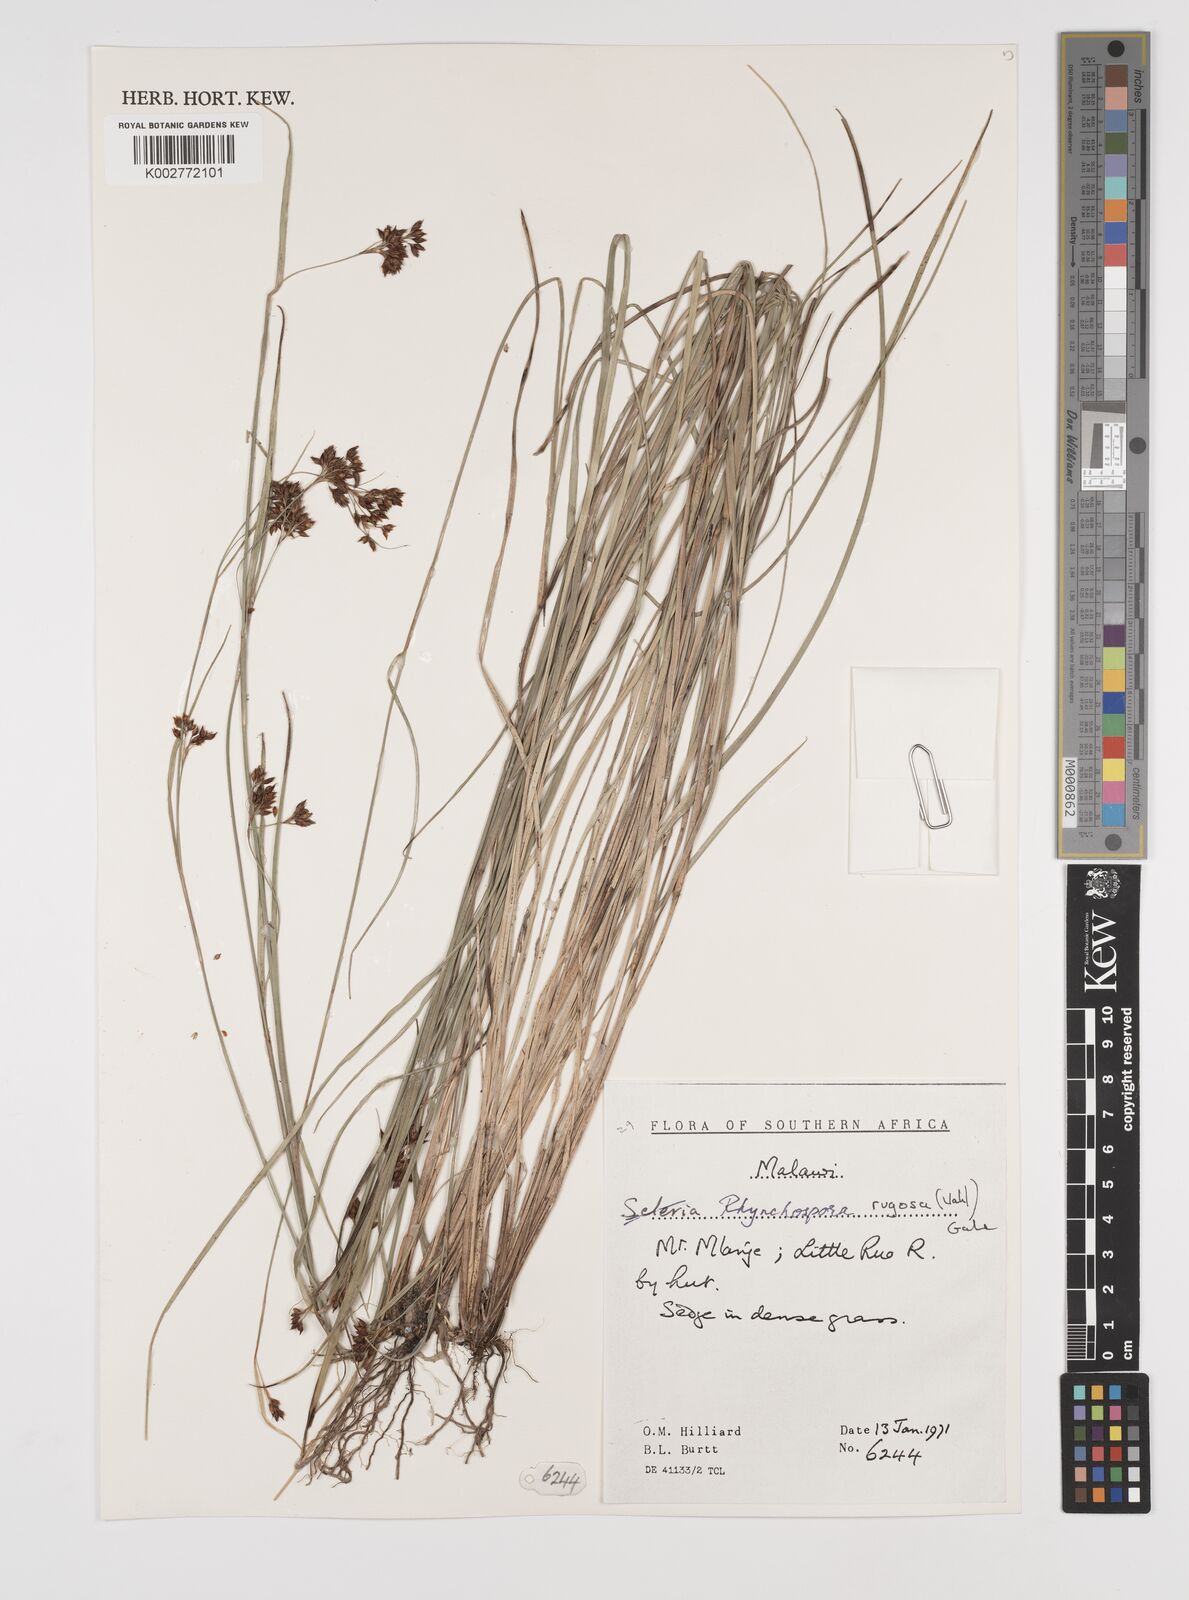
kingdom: Plantae
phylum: Tracheophyta
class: Liliopsida
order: Poales
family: Cyperaceae
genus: Rhynchospora
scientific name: Rhynchospora rugosa
